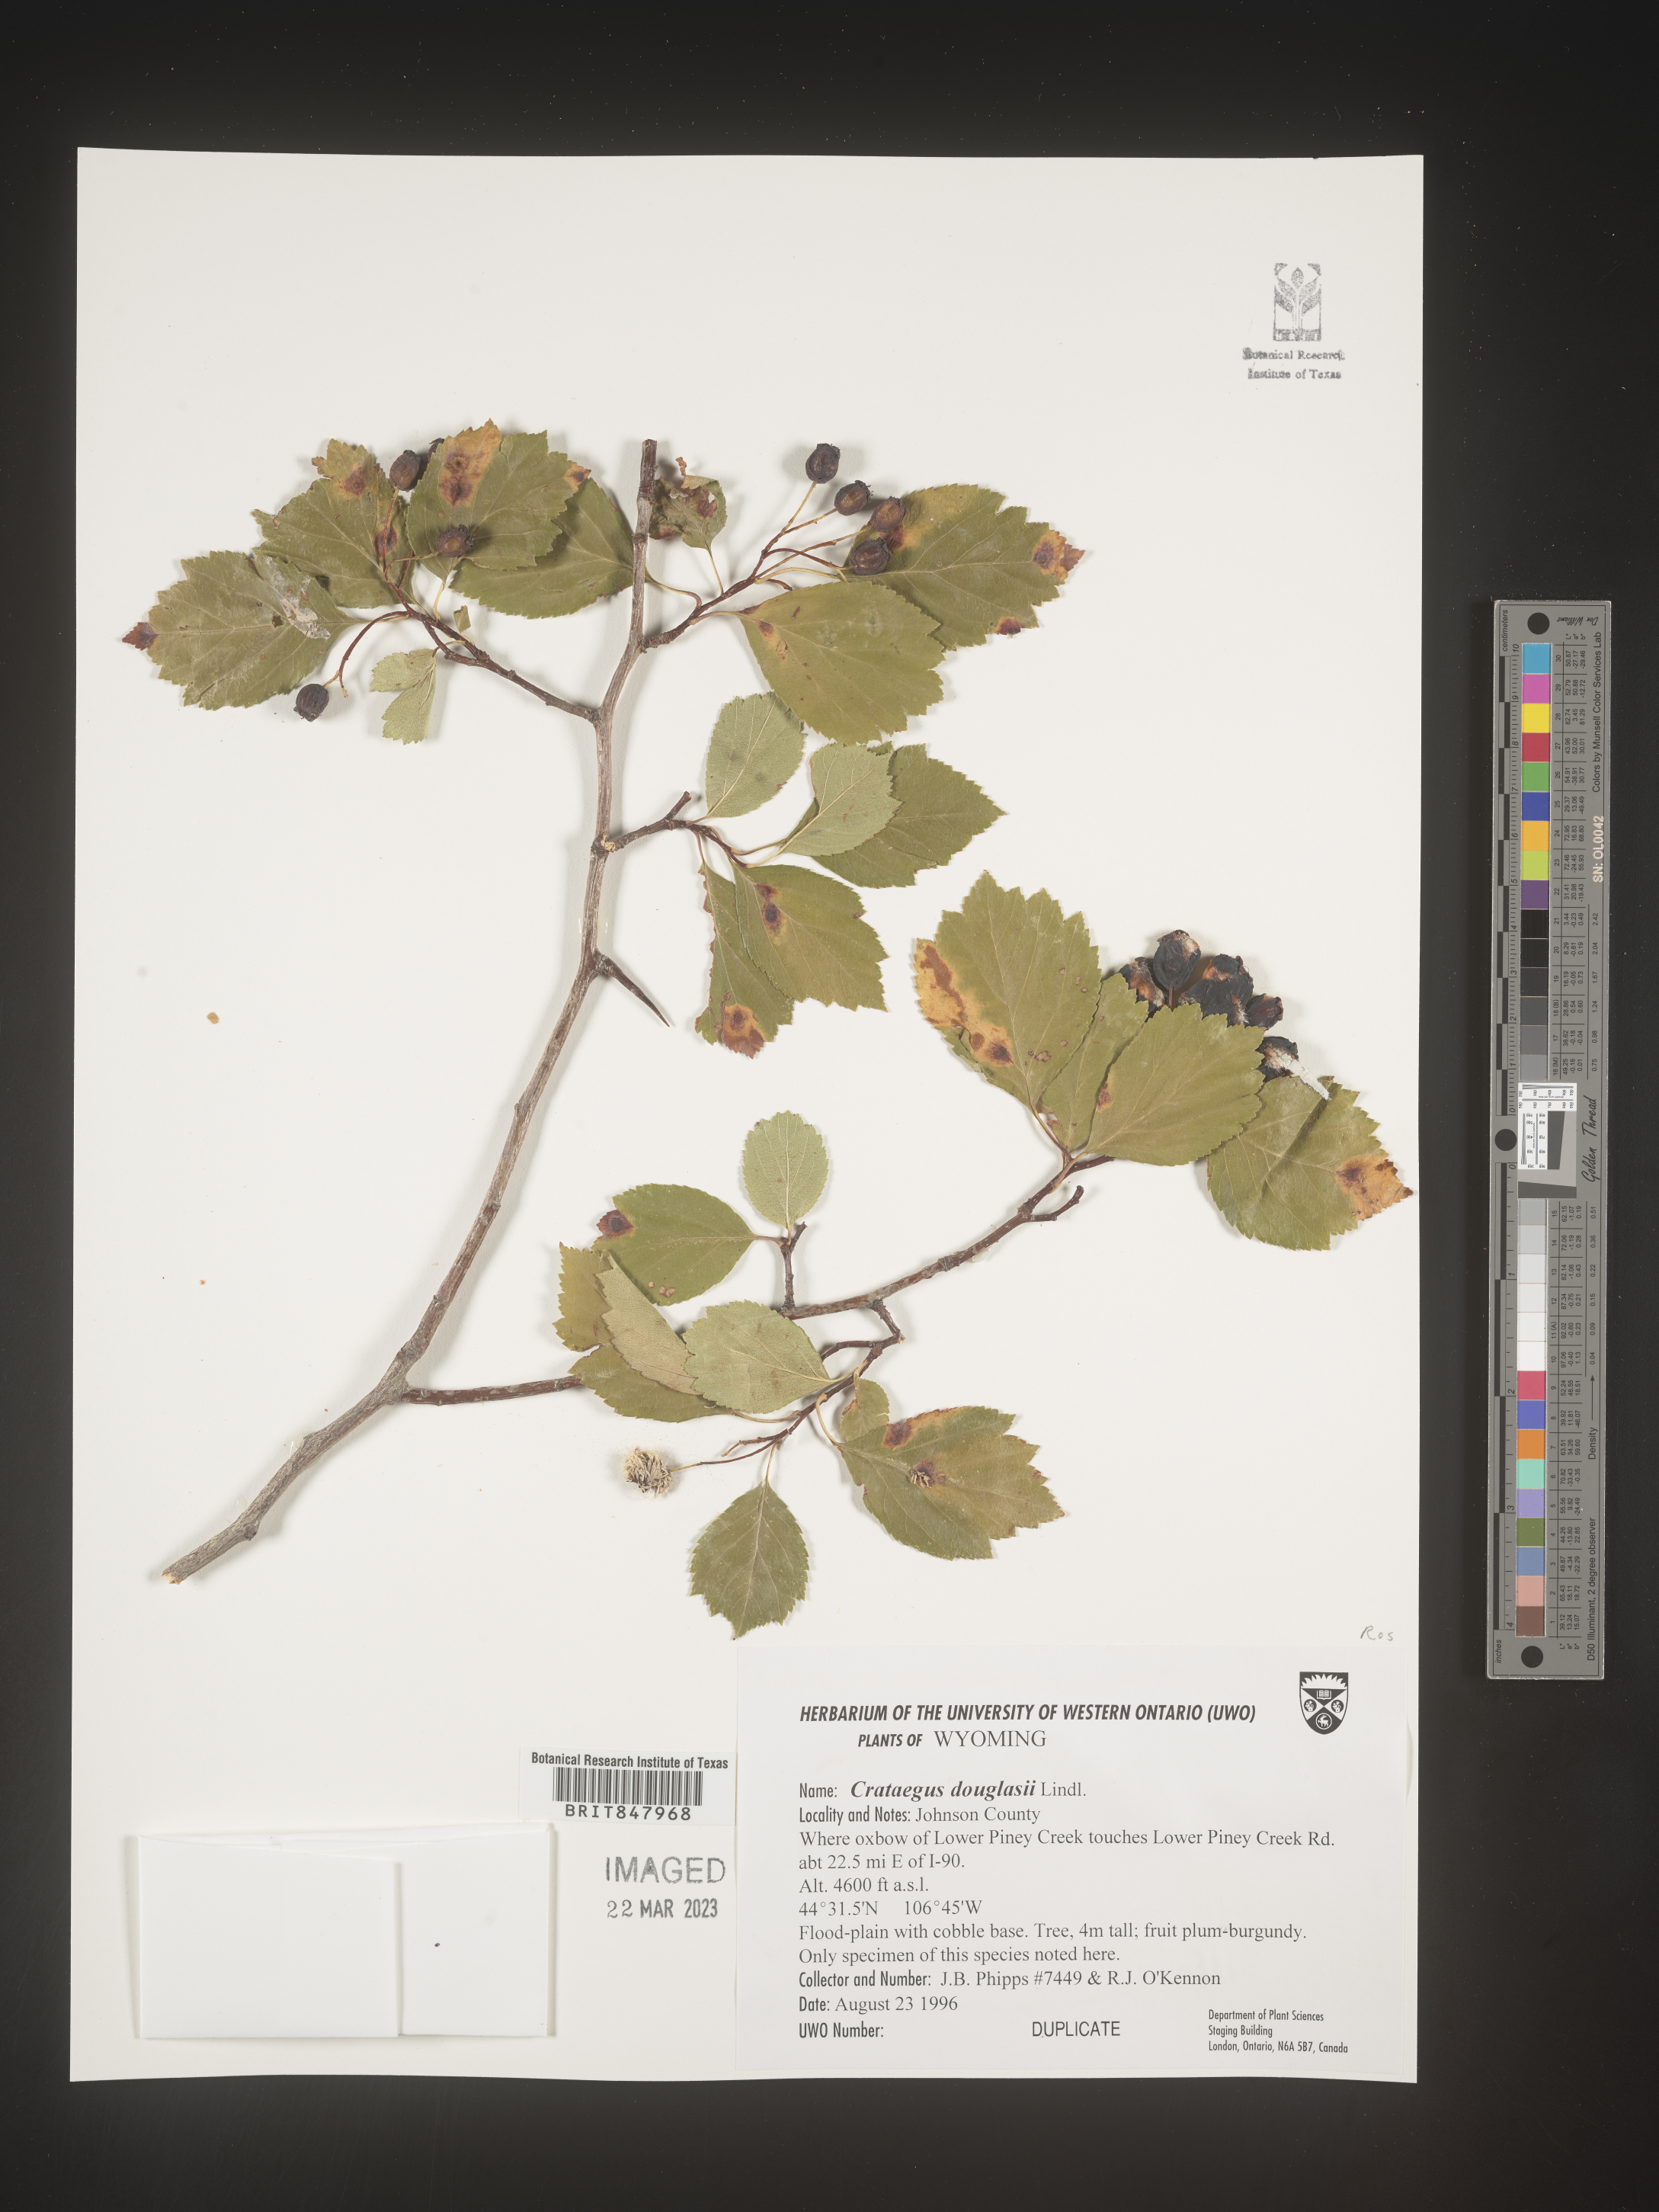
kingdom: Plantae
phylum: Tracheophyta
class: Magnoliopsida
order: Rosales
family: Rosaceae
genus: Crataegus
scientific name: Crataegus douglasii
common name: Black hawthorn
